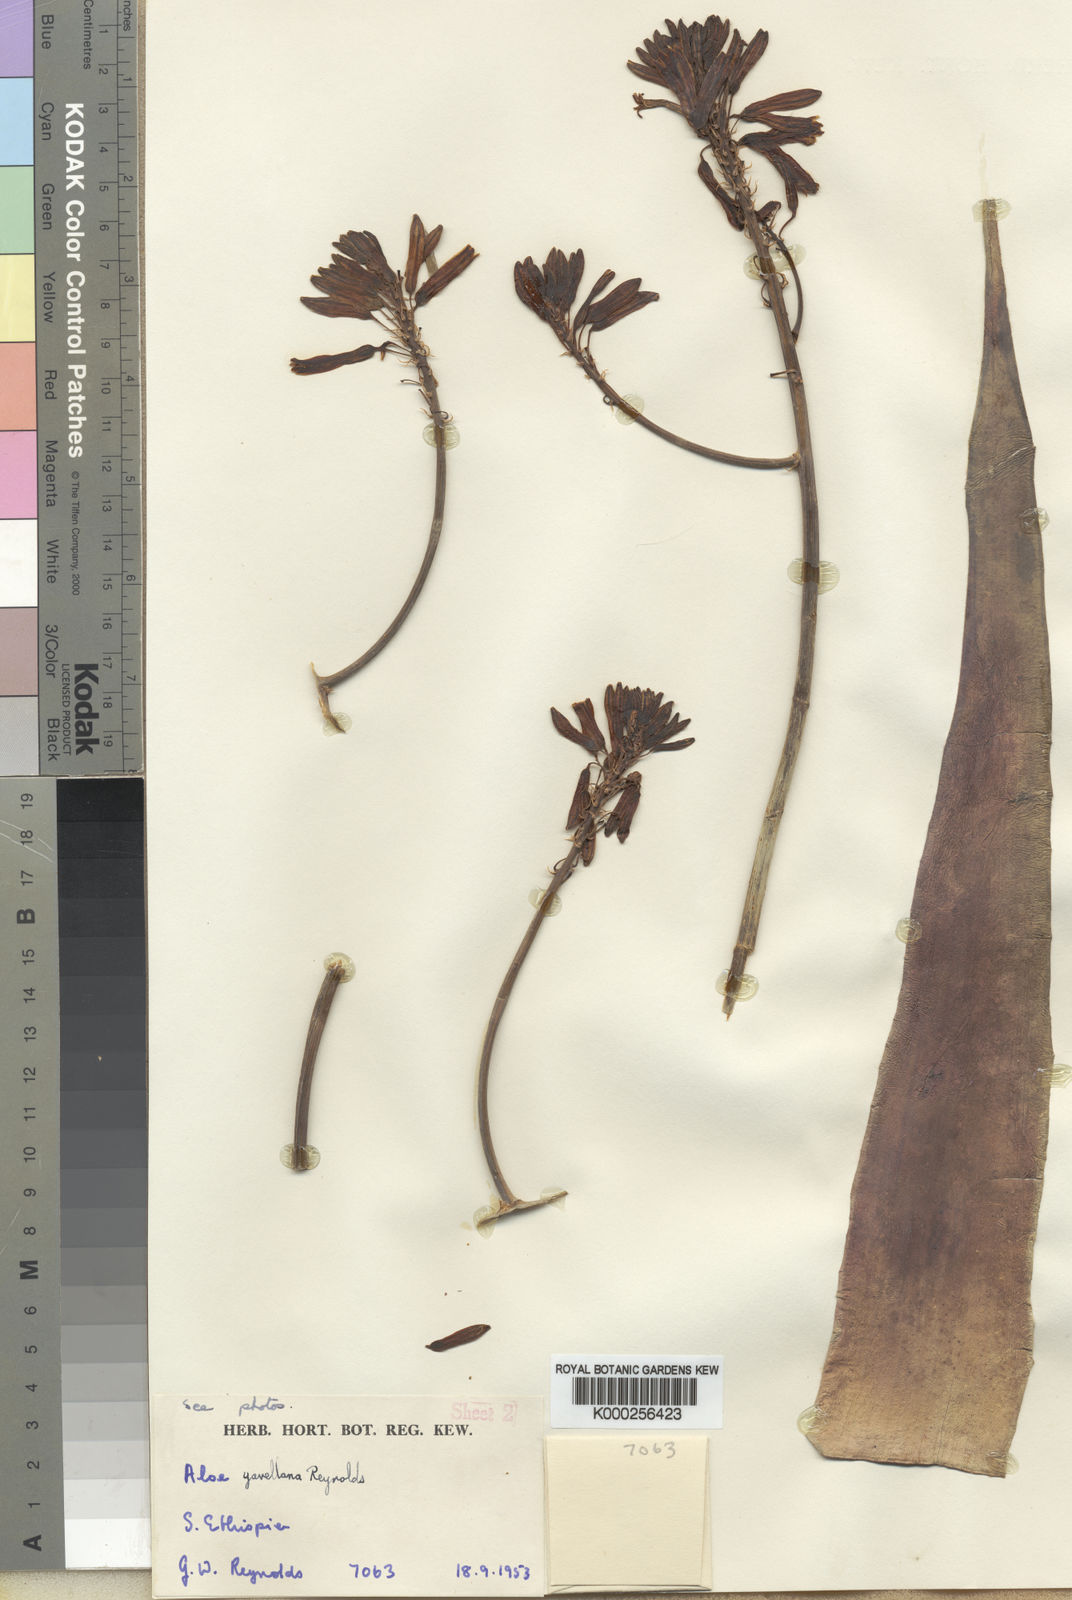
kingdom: Plantae
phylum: Tracheophyta
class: Liliopsida
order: Asparagales
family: Asphodelaceae
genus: Aloe
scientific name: Aloe yavellana
